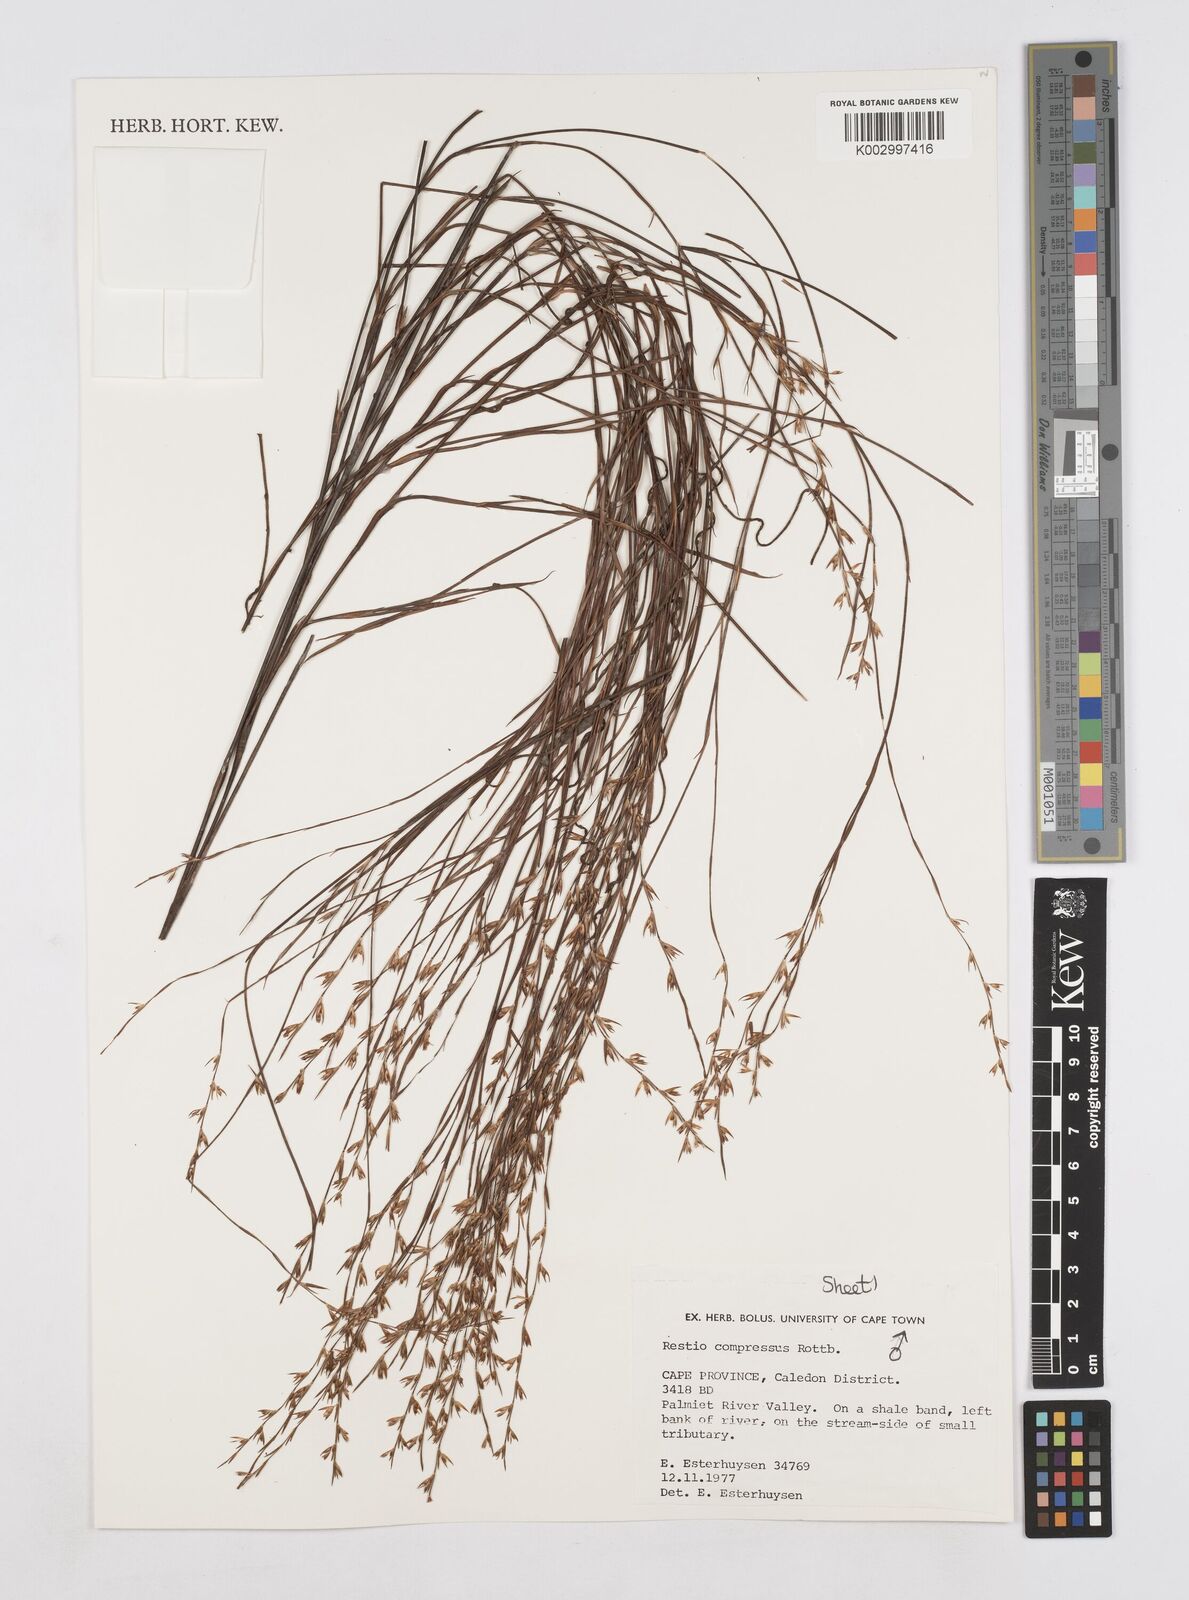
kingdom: Plantae
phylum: Tracheophyta
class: Liliopsida
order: Poales
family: Restionaceae
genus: Platycaulos
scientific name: Platycaulos compressus
